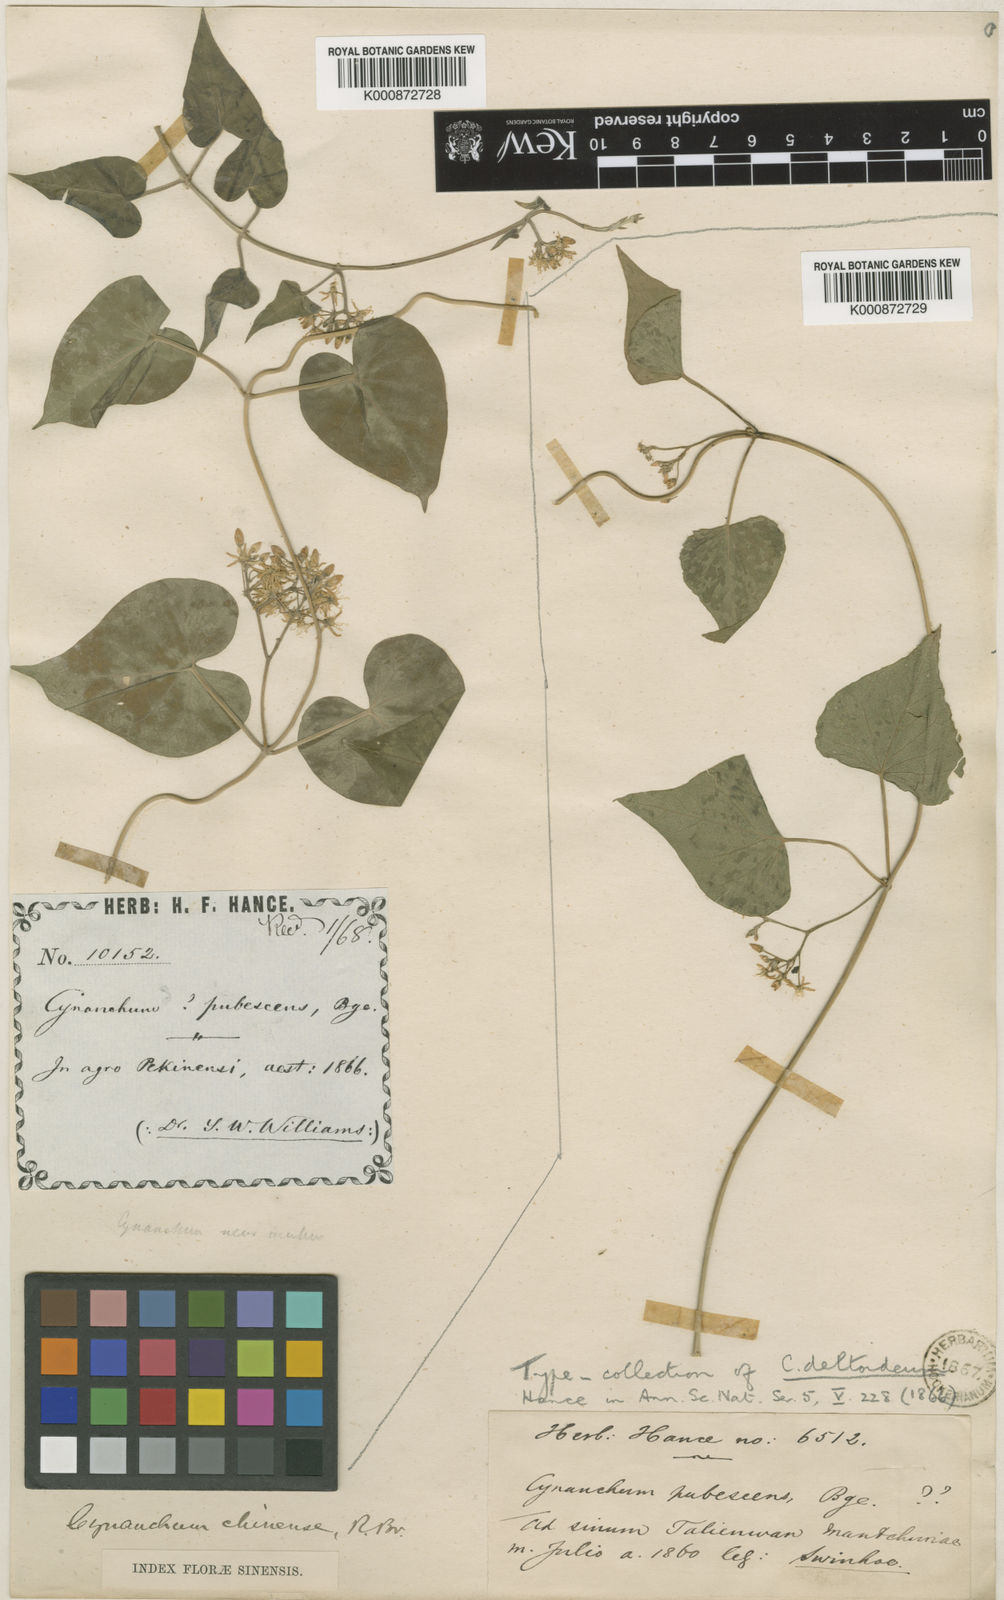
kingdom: Plantae
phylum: Tracheophyta
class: Magnoliopsida
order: Gentianales
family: Apocynaceae
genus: Vincetoxicum
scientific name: Vincetoxicum pubescens
